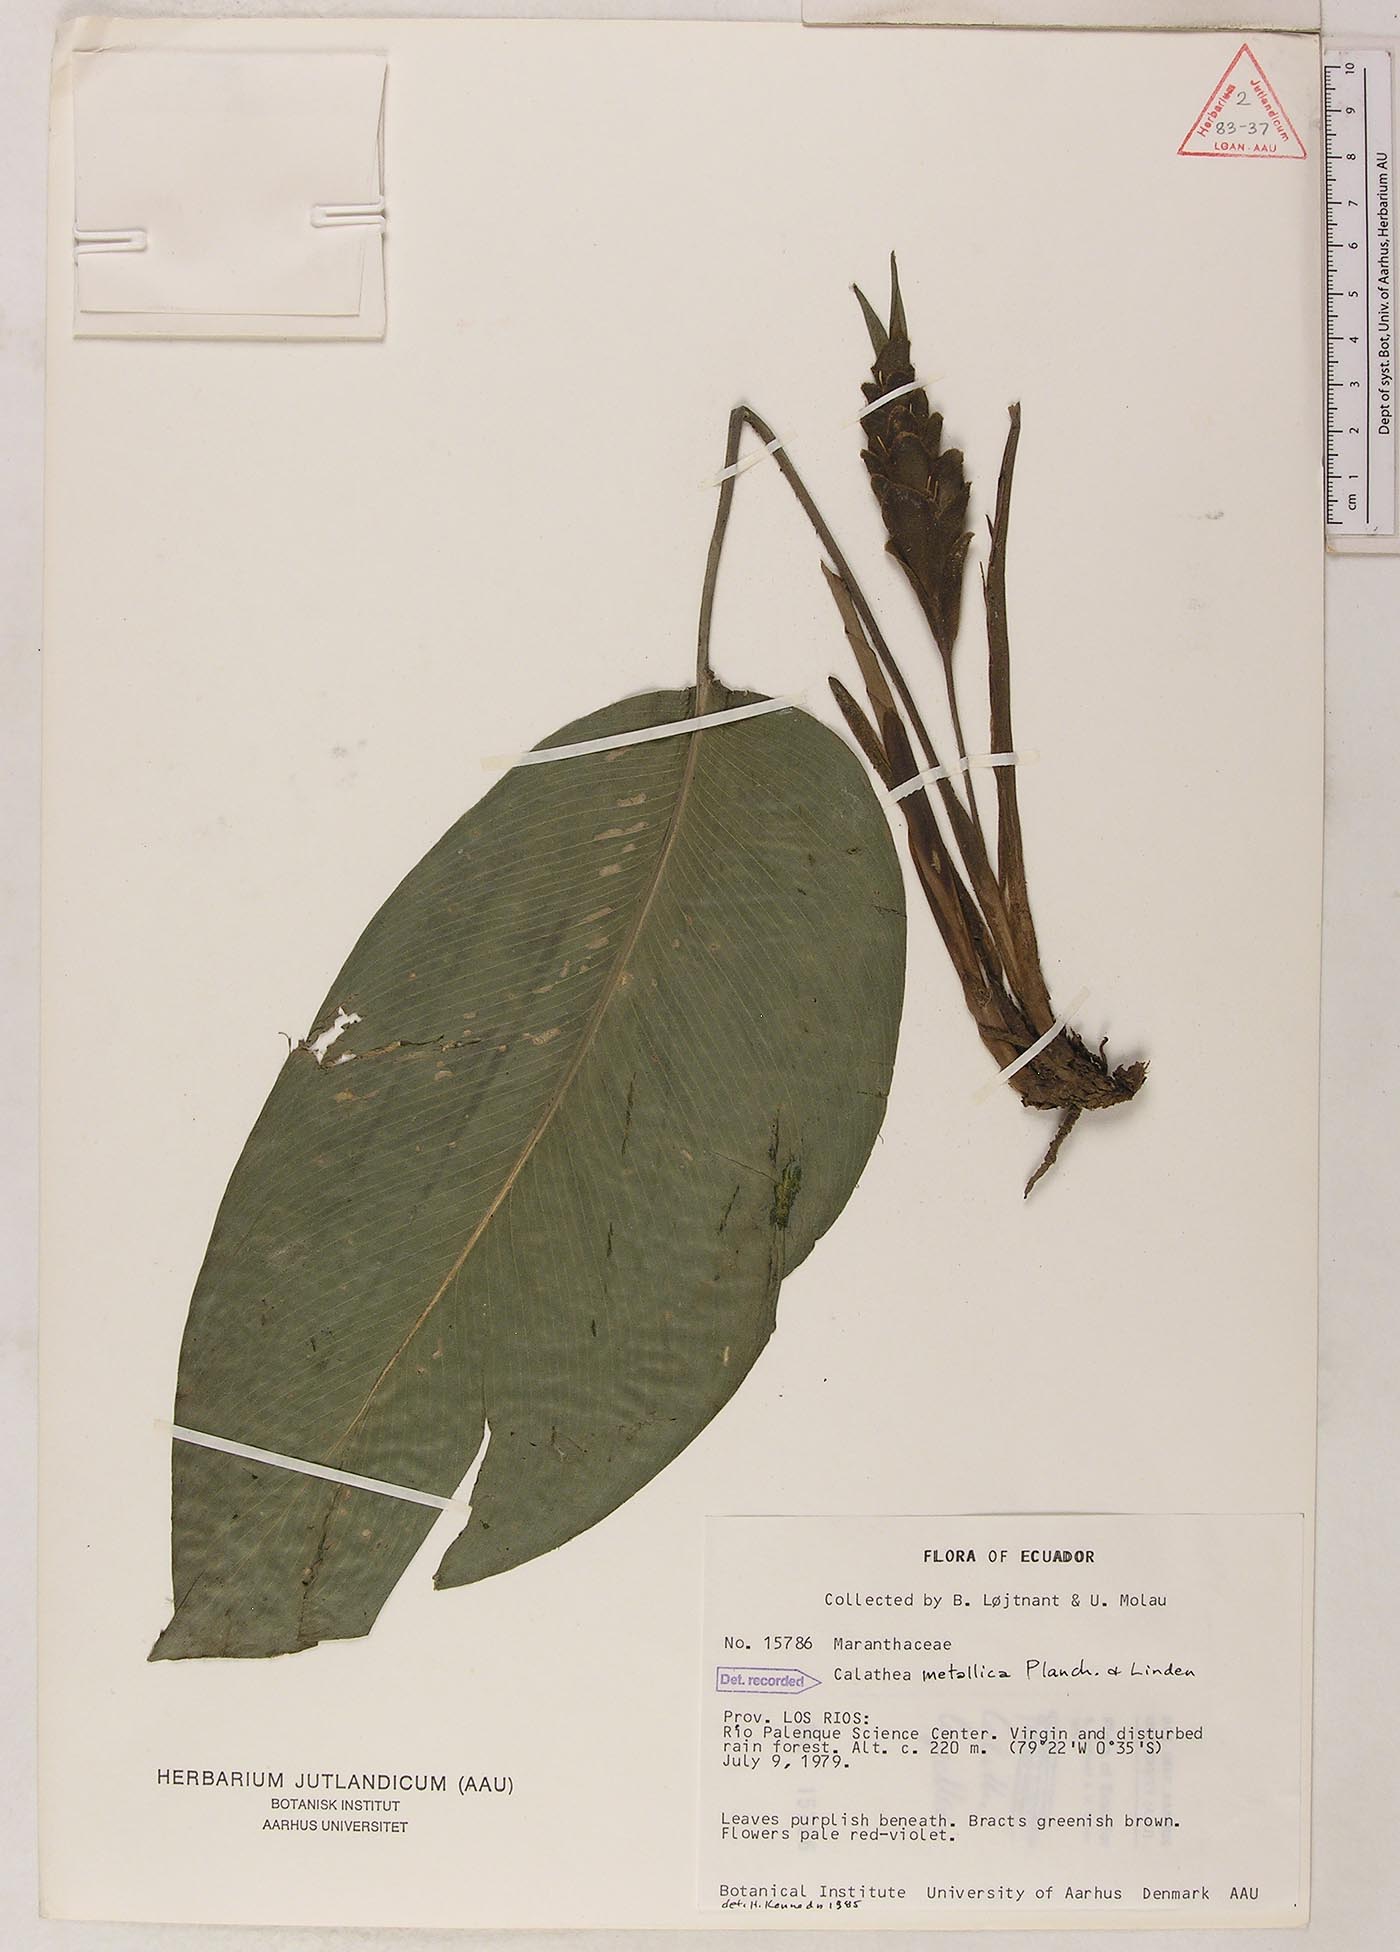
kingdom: Plantae
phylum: Tracheophyta
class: Liliopsida
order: Zingiberales
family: Marantaceae
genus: Goeppertia
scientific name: Goeppertia metallica
